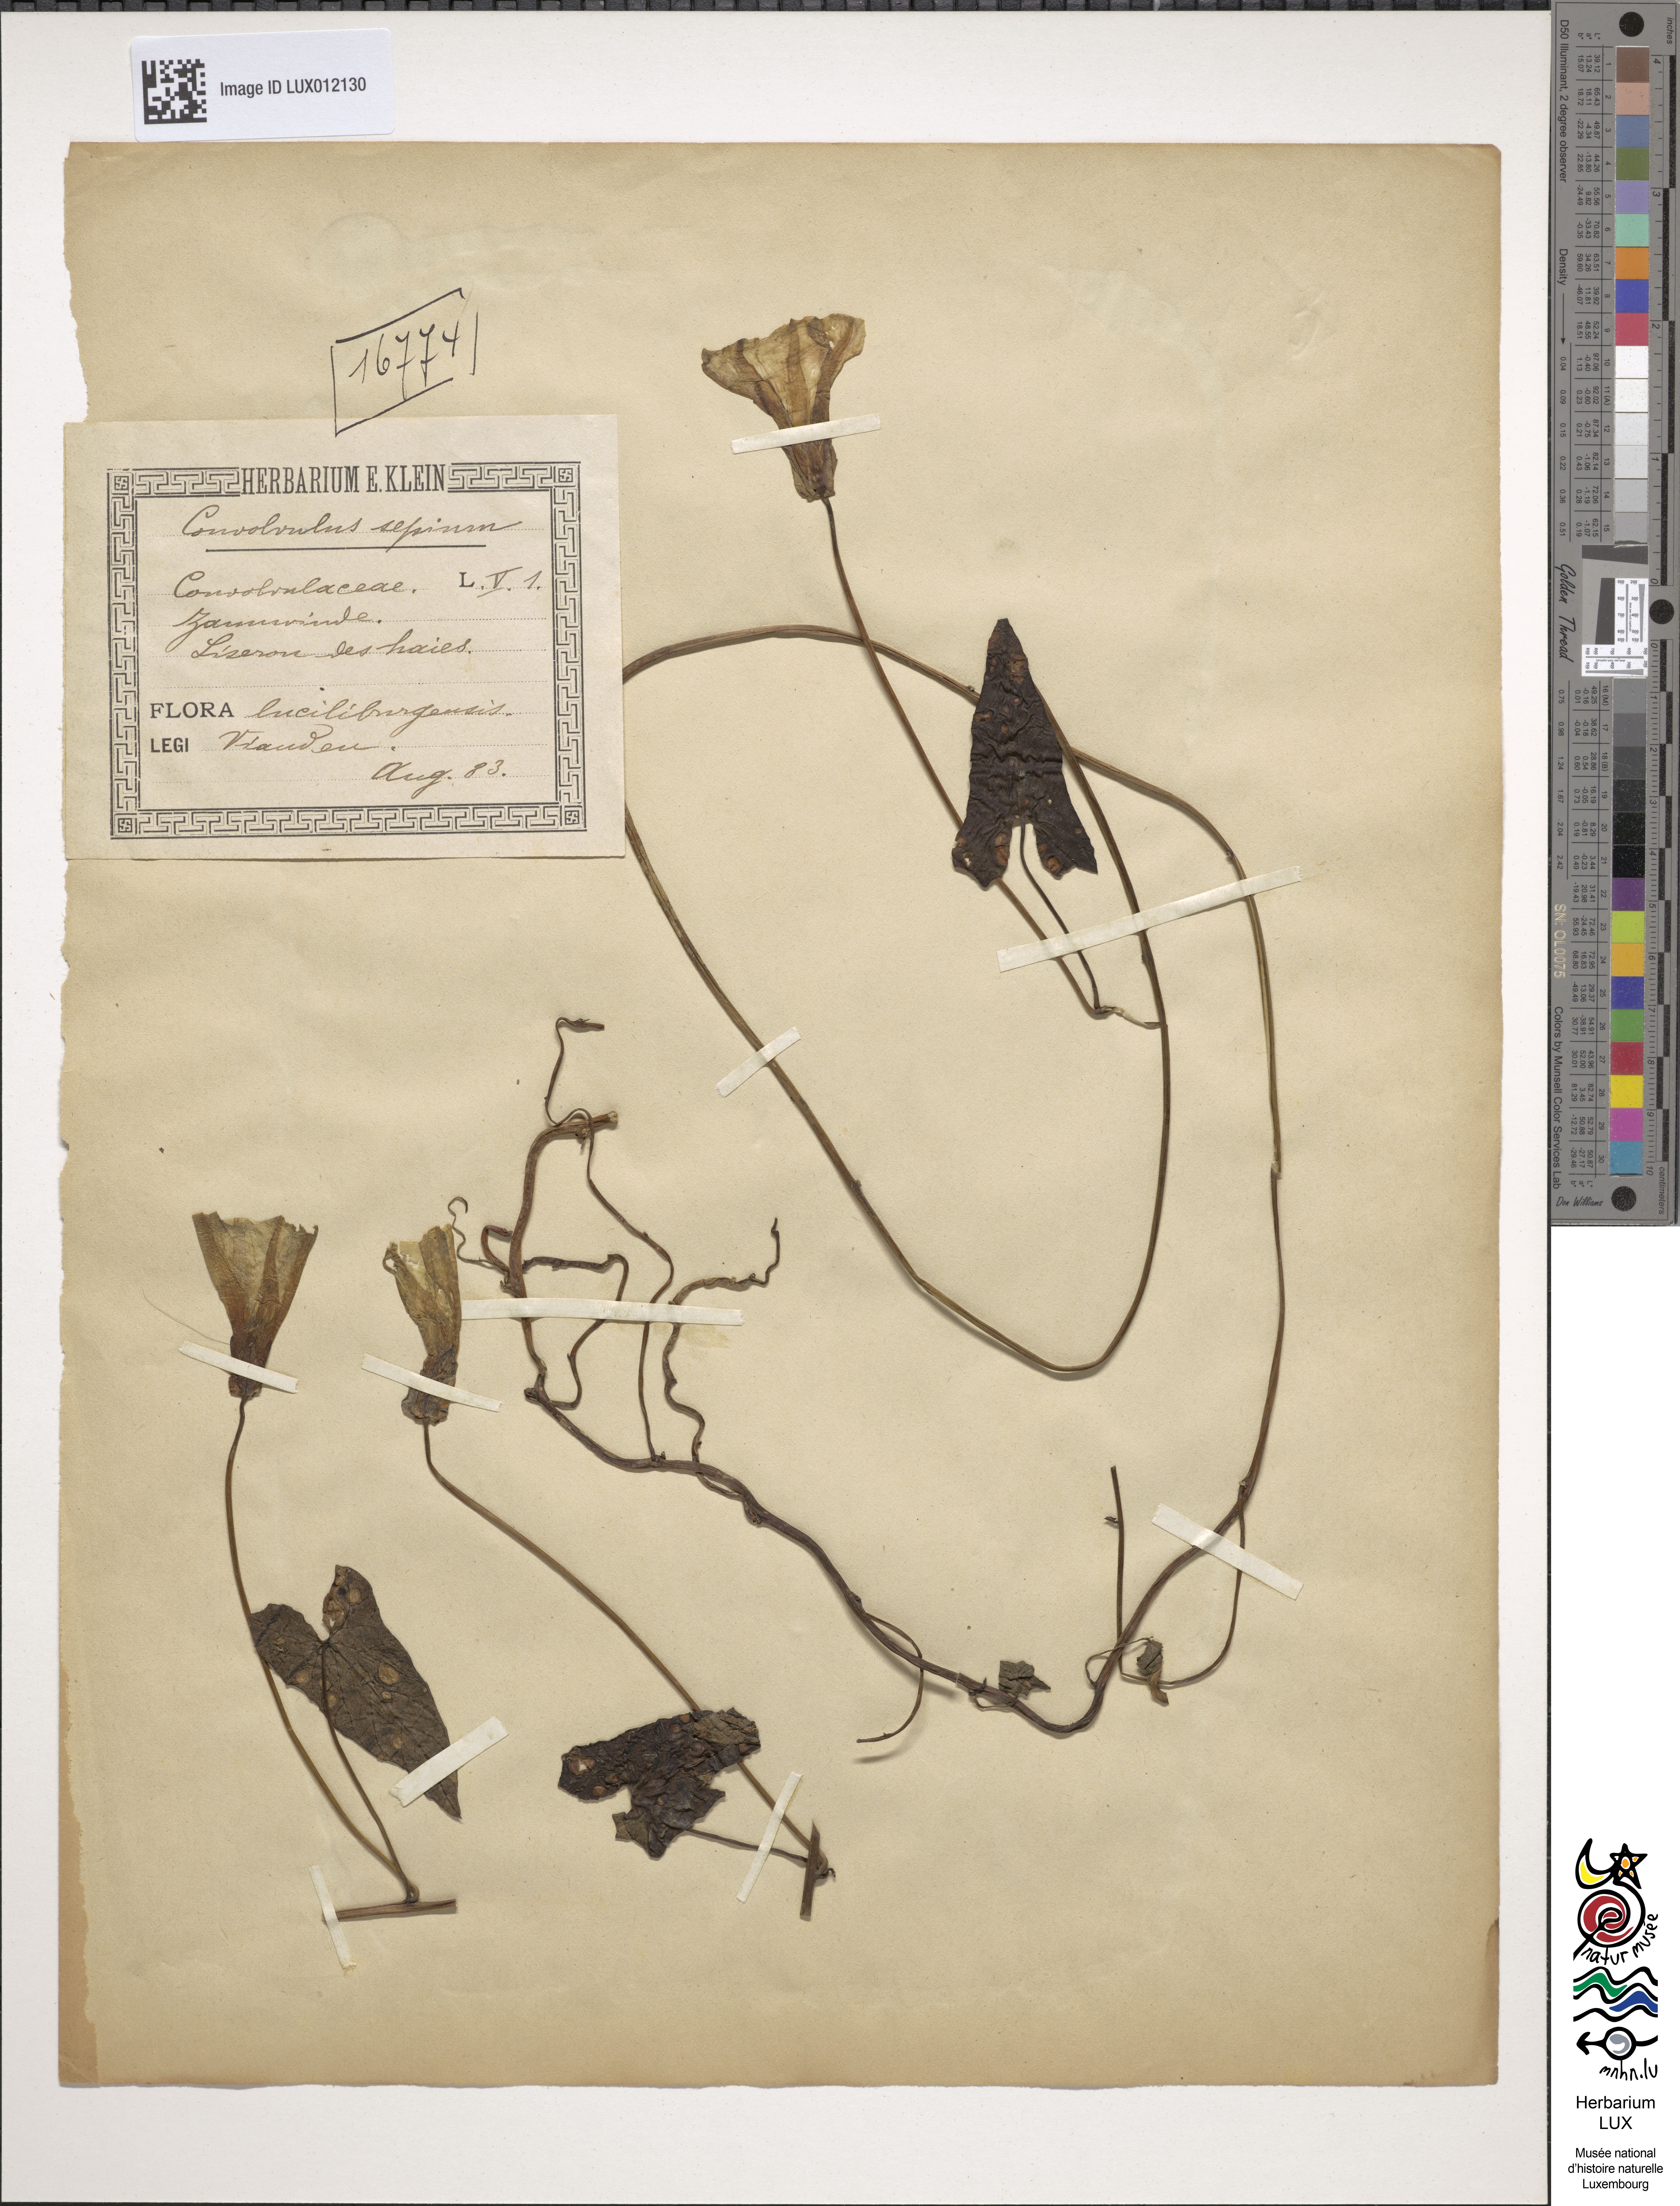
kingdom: Plantae
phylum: Tracheophyta
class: Magnoliopsida
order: Solanales
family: Convolvulaceae
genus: Calystegia
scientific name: Calystegia sepium
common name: Hedge bindweed
